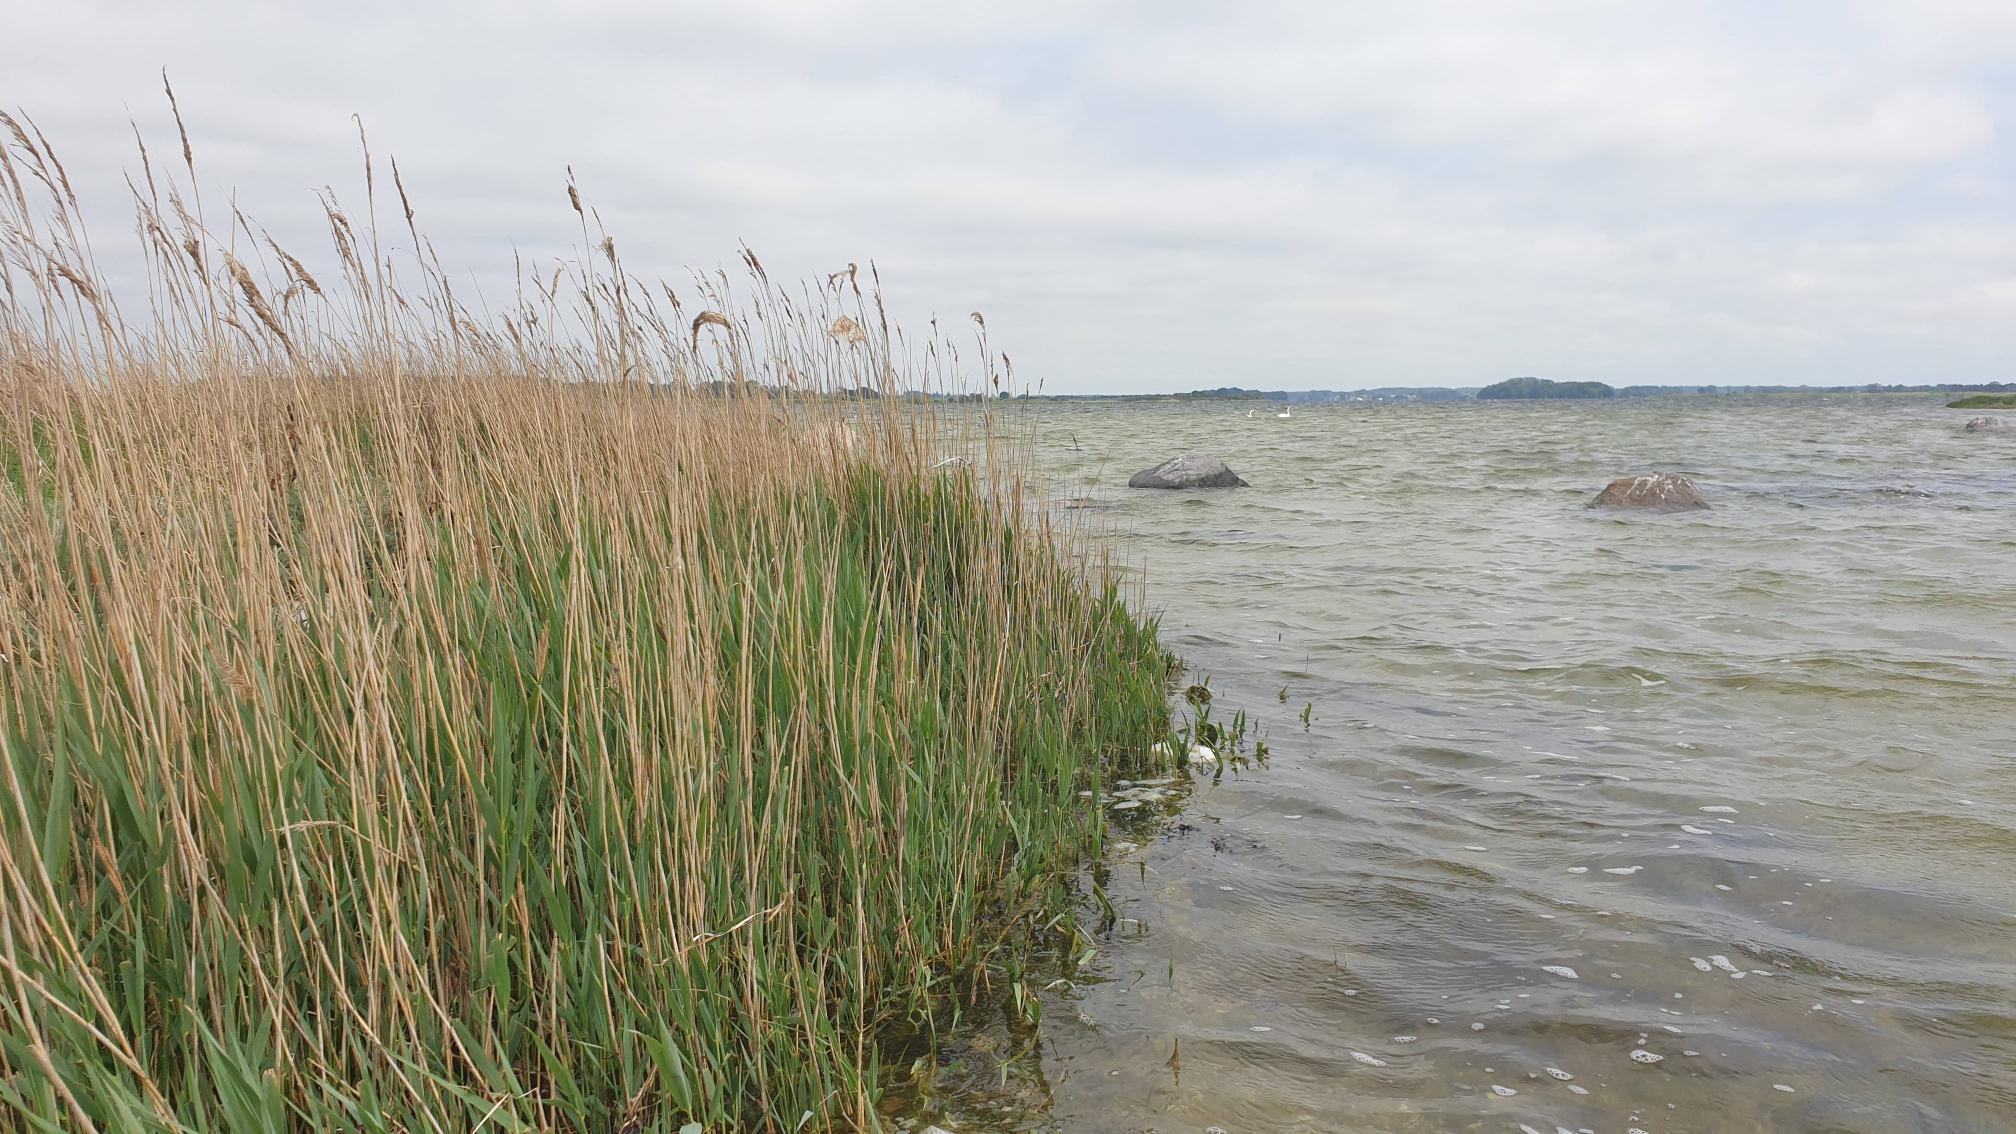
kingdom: Plantae
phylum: Tracheophyta
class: Liliopsida
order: Poales
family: Poaceae
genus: Phragmites
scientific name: Phragmites australis
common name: Tagrør
